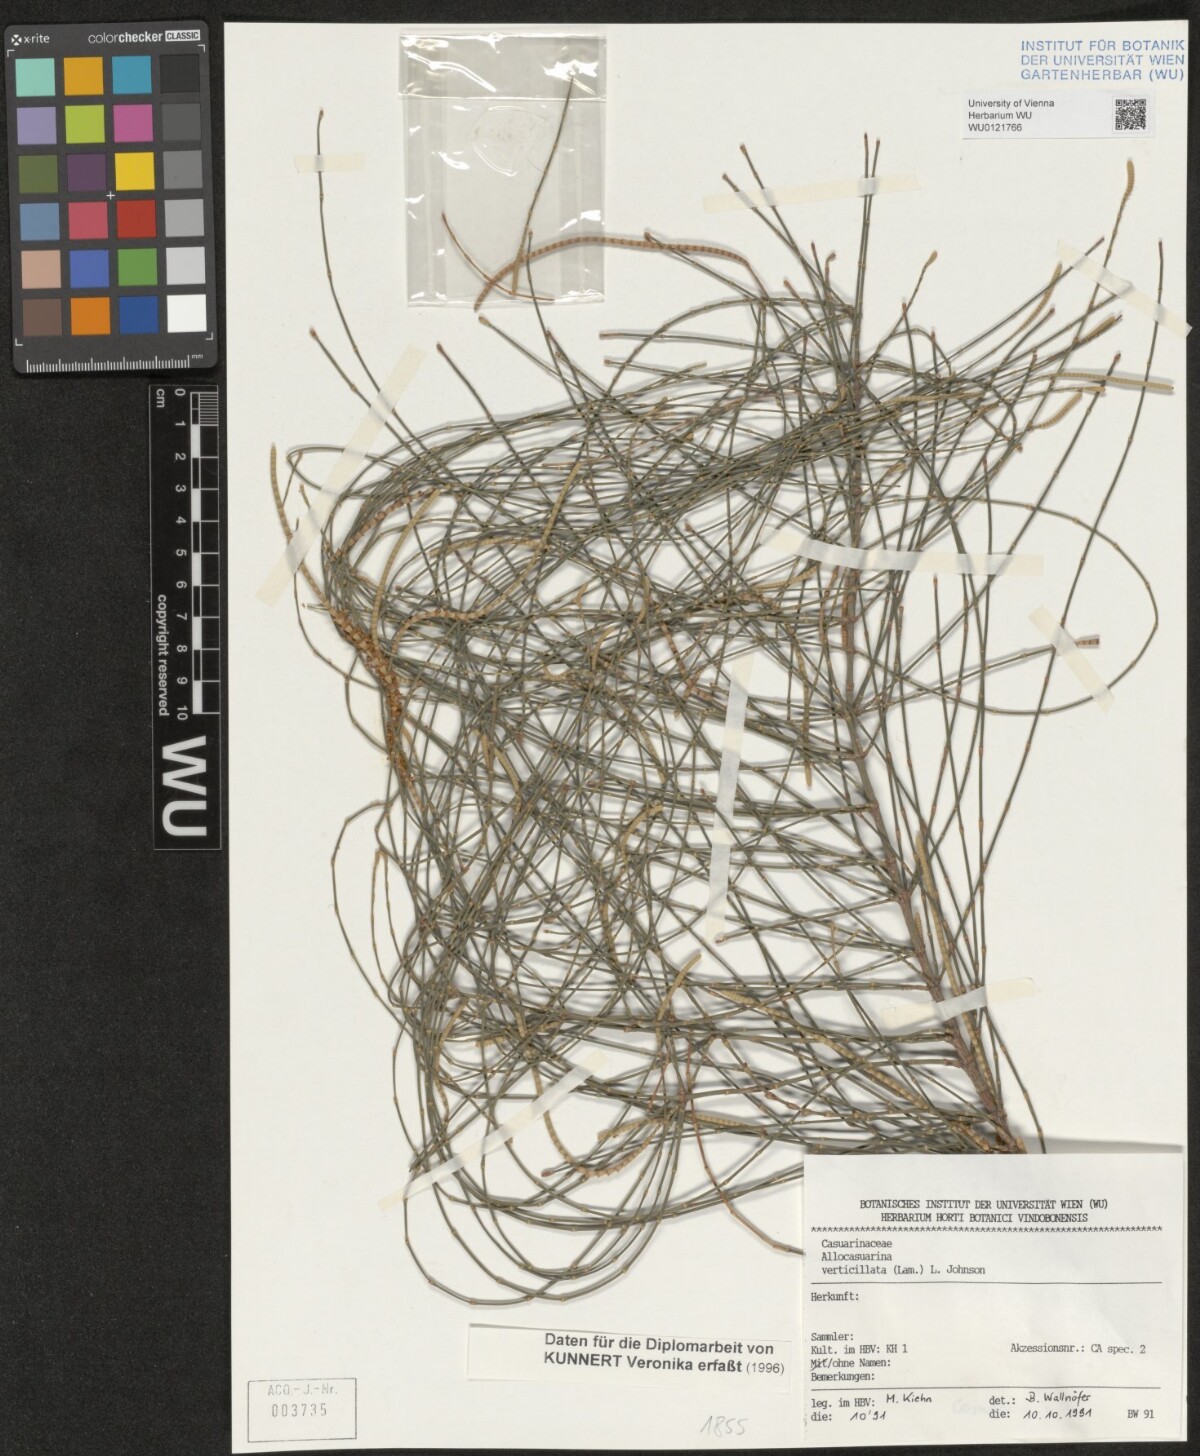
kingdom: Plantae
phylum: Tracheophyta
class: Magnoliopsida
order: Fagales
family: Casuarinaceae
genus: Allocasuarina
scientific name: Allocasuarina verticillata
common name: Drooping she-oak
